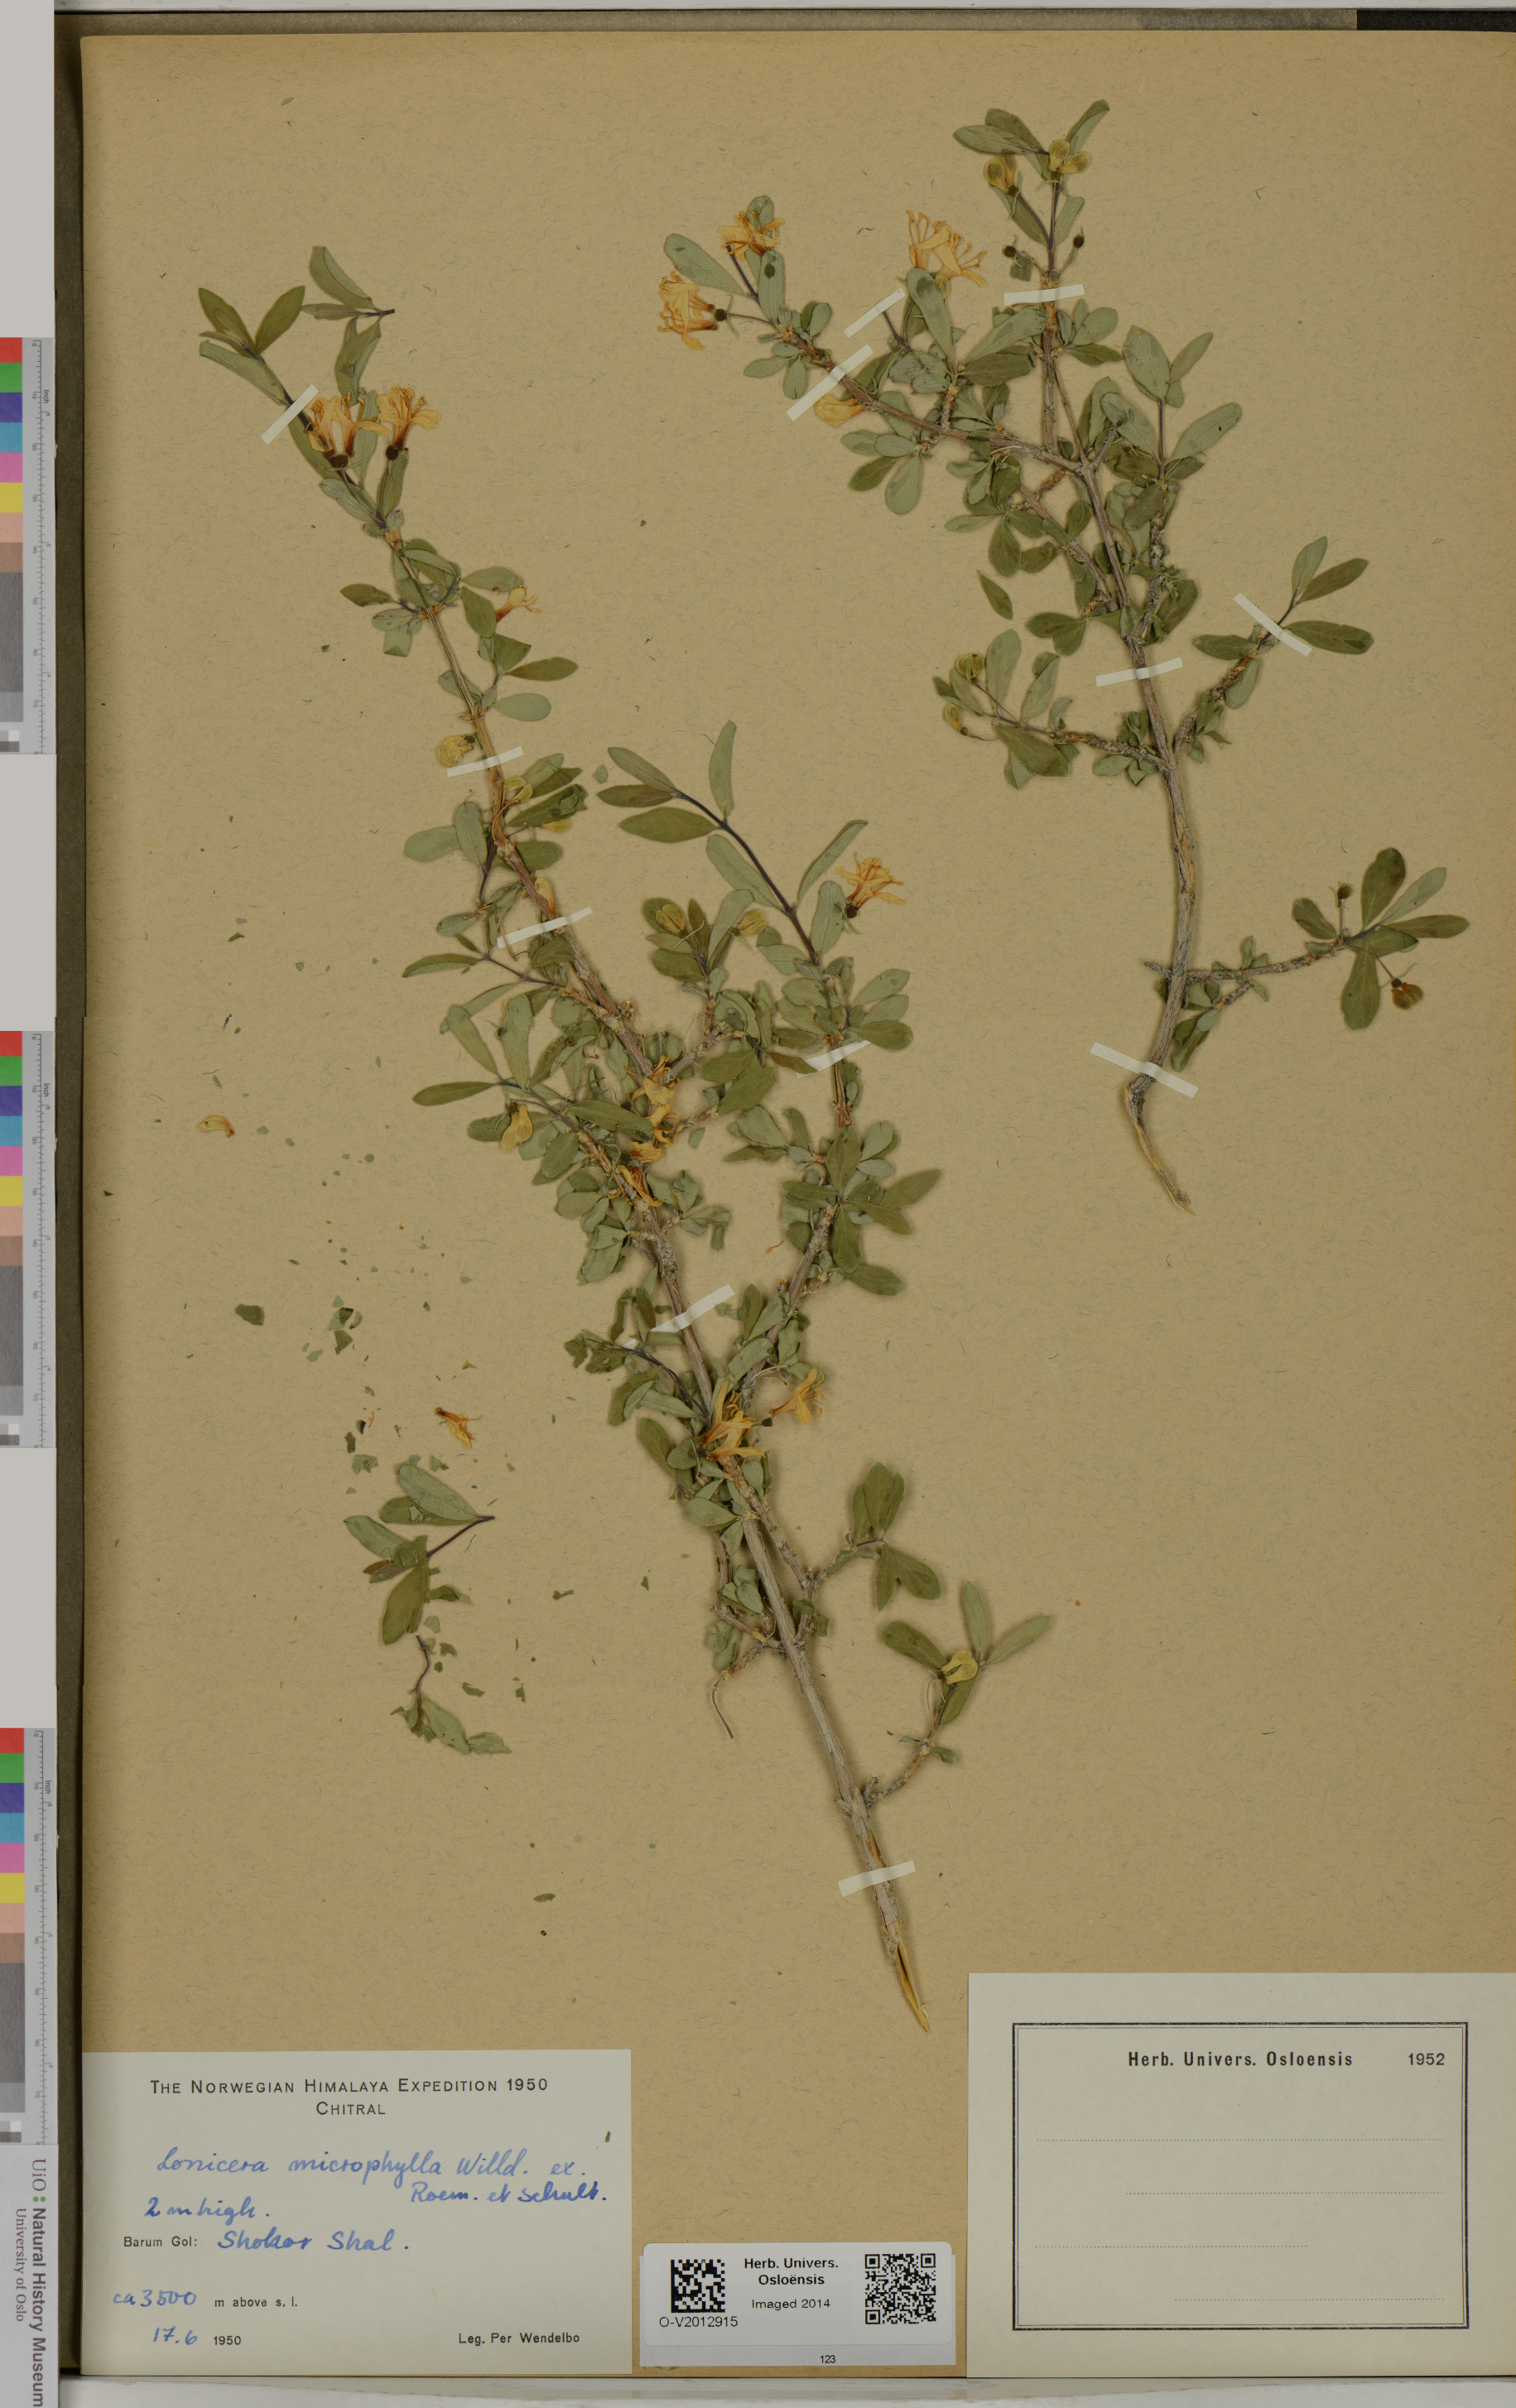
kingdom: Plantae
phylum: Tracheophyta
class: Magnoliopsida
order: Dipsacales
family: Caprifoliaceae
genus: Lonicera
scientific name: Lonicera microphylla
